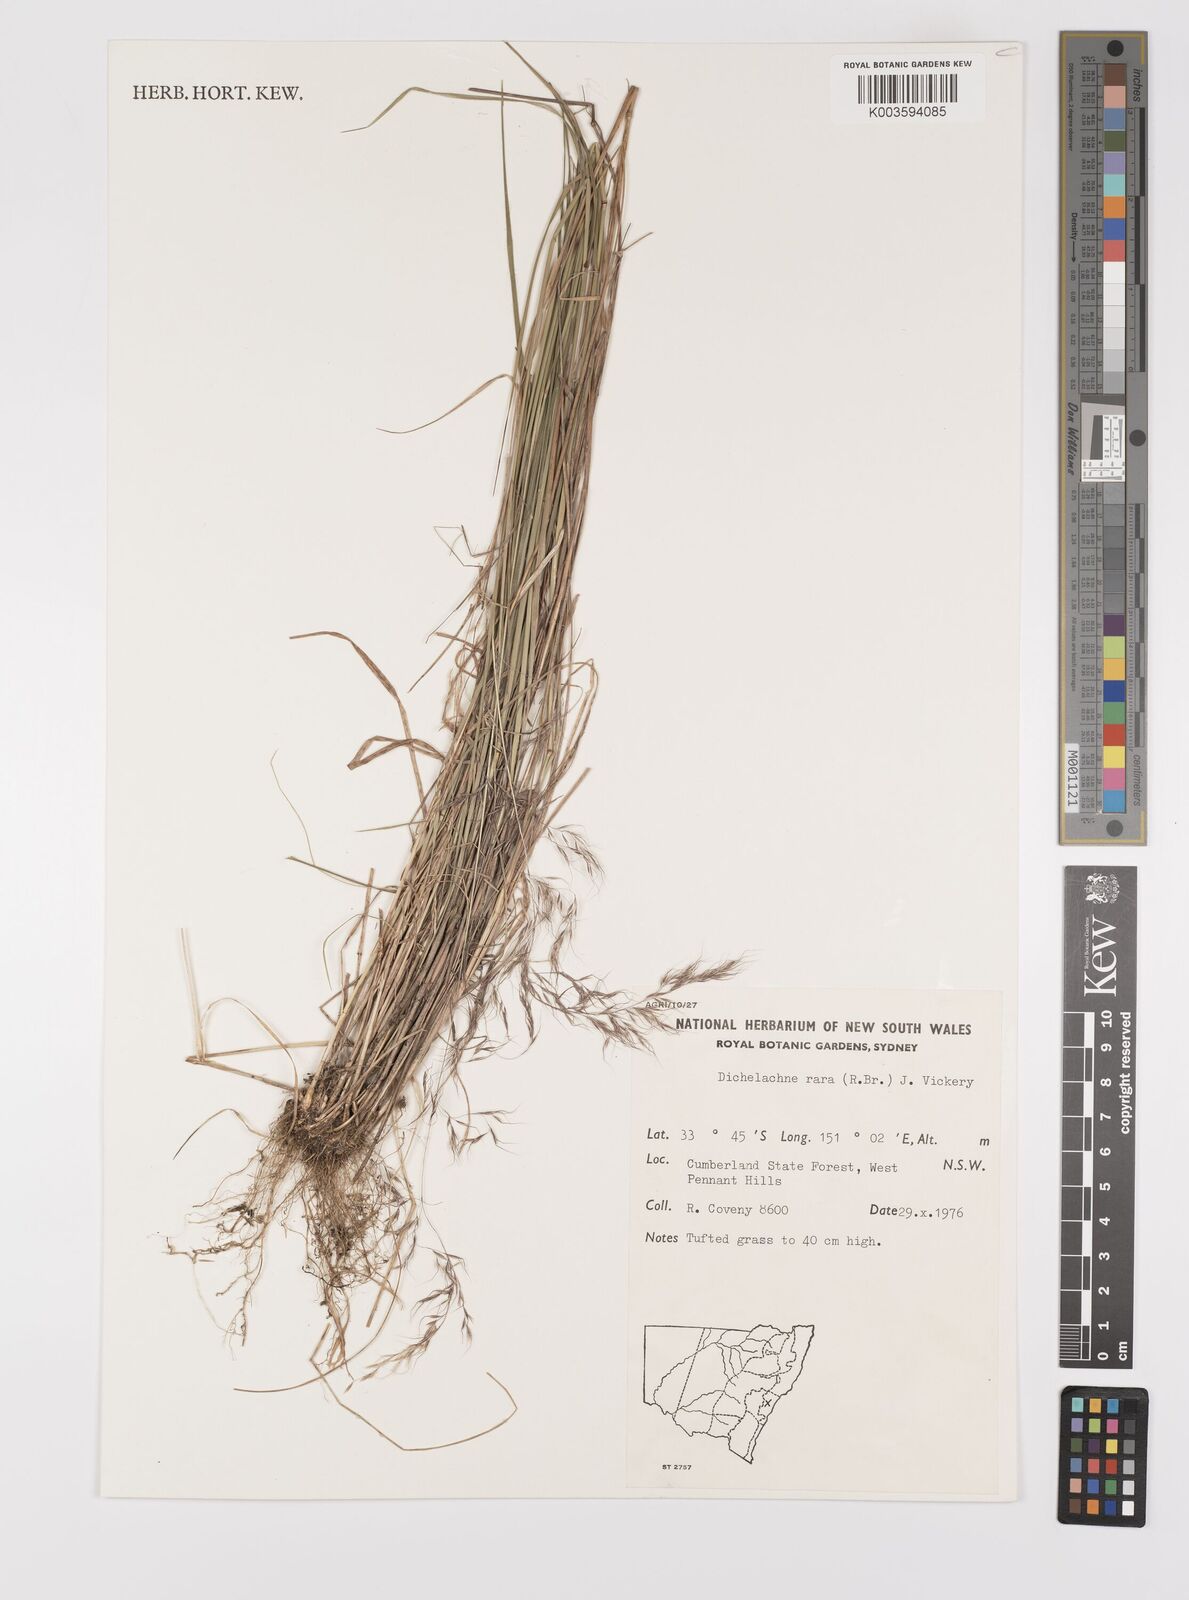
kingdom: Plantae
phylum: Tracheophyta
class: Liliopsida
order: Poales
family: Poaceae
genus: Dichelachne
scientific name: Dichelachne rara
